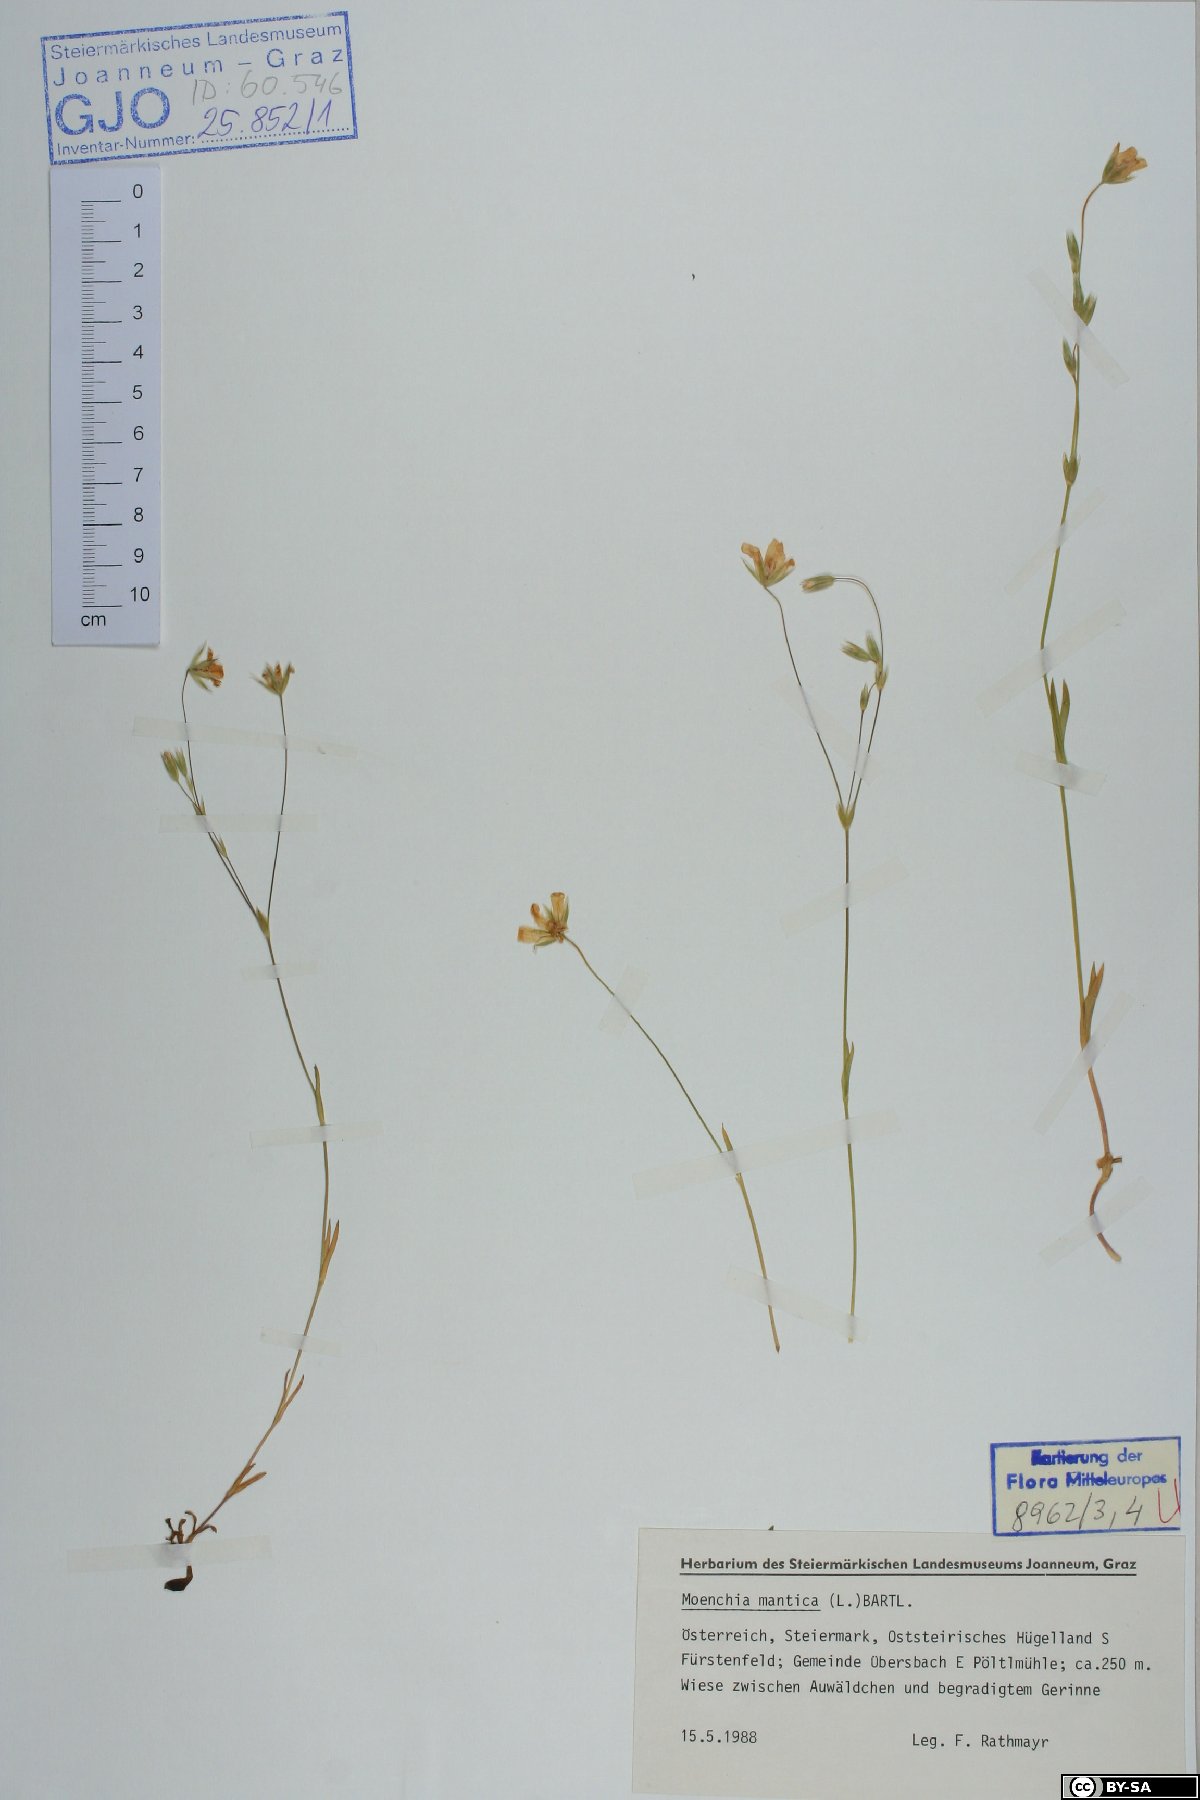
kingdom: Plantae
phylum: Tracheophyta
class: Magnoliopsida
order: Caryophyllales
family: Caryophyllaceae
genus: Moenchia
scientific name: Moenchia mantica
